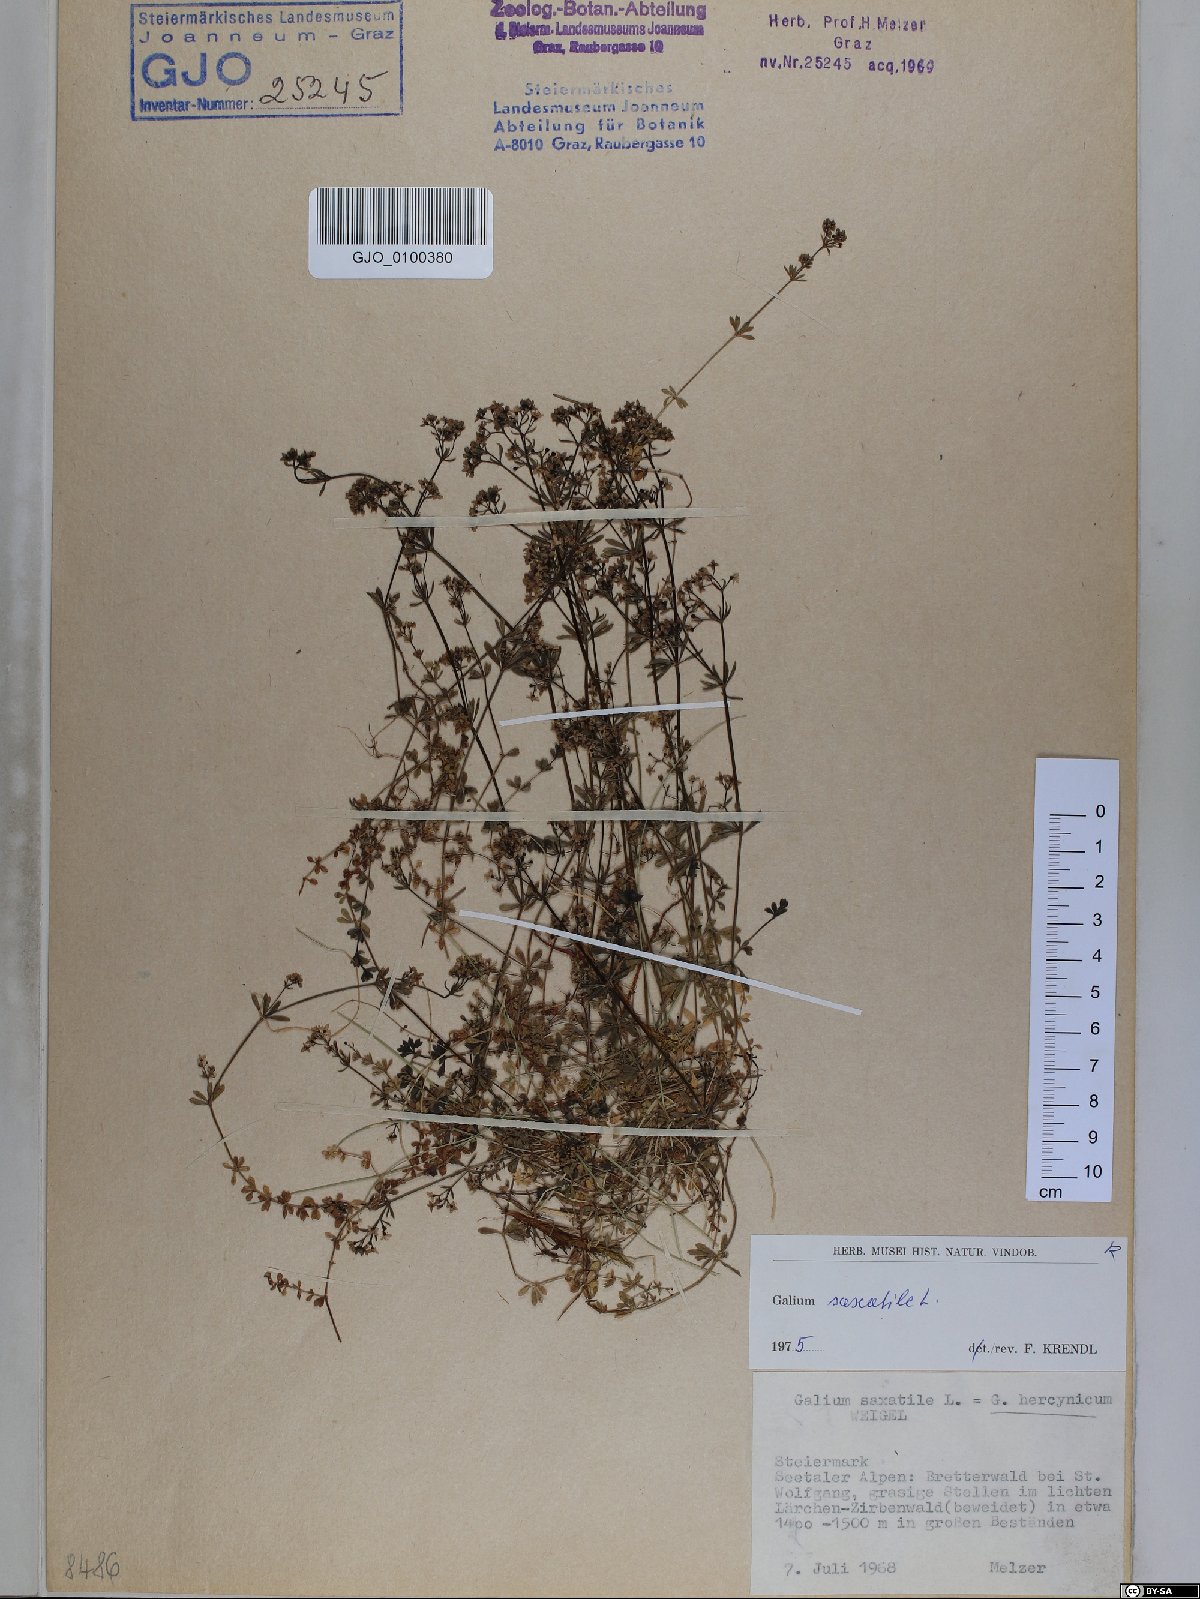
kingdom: Plantae
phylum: Tracheophyta
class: Magnoliopsida
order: Gentianales
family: Rubiaceae
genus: Galium
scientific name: Galium saxatile
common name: Heath bedstraw
